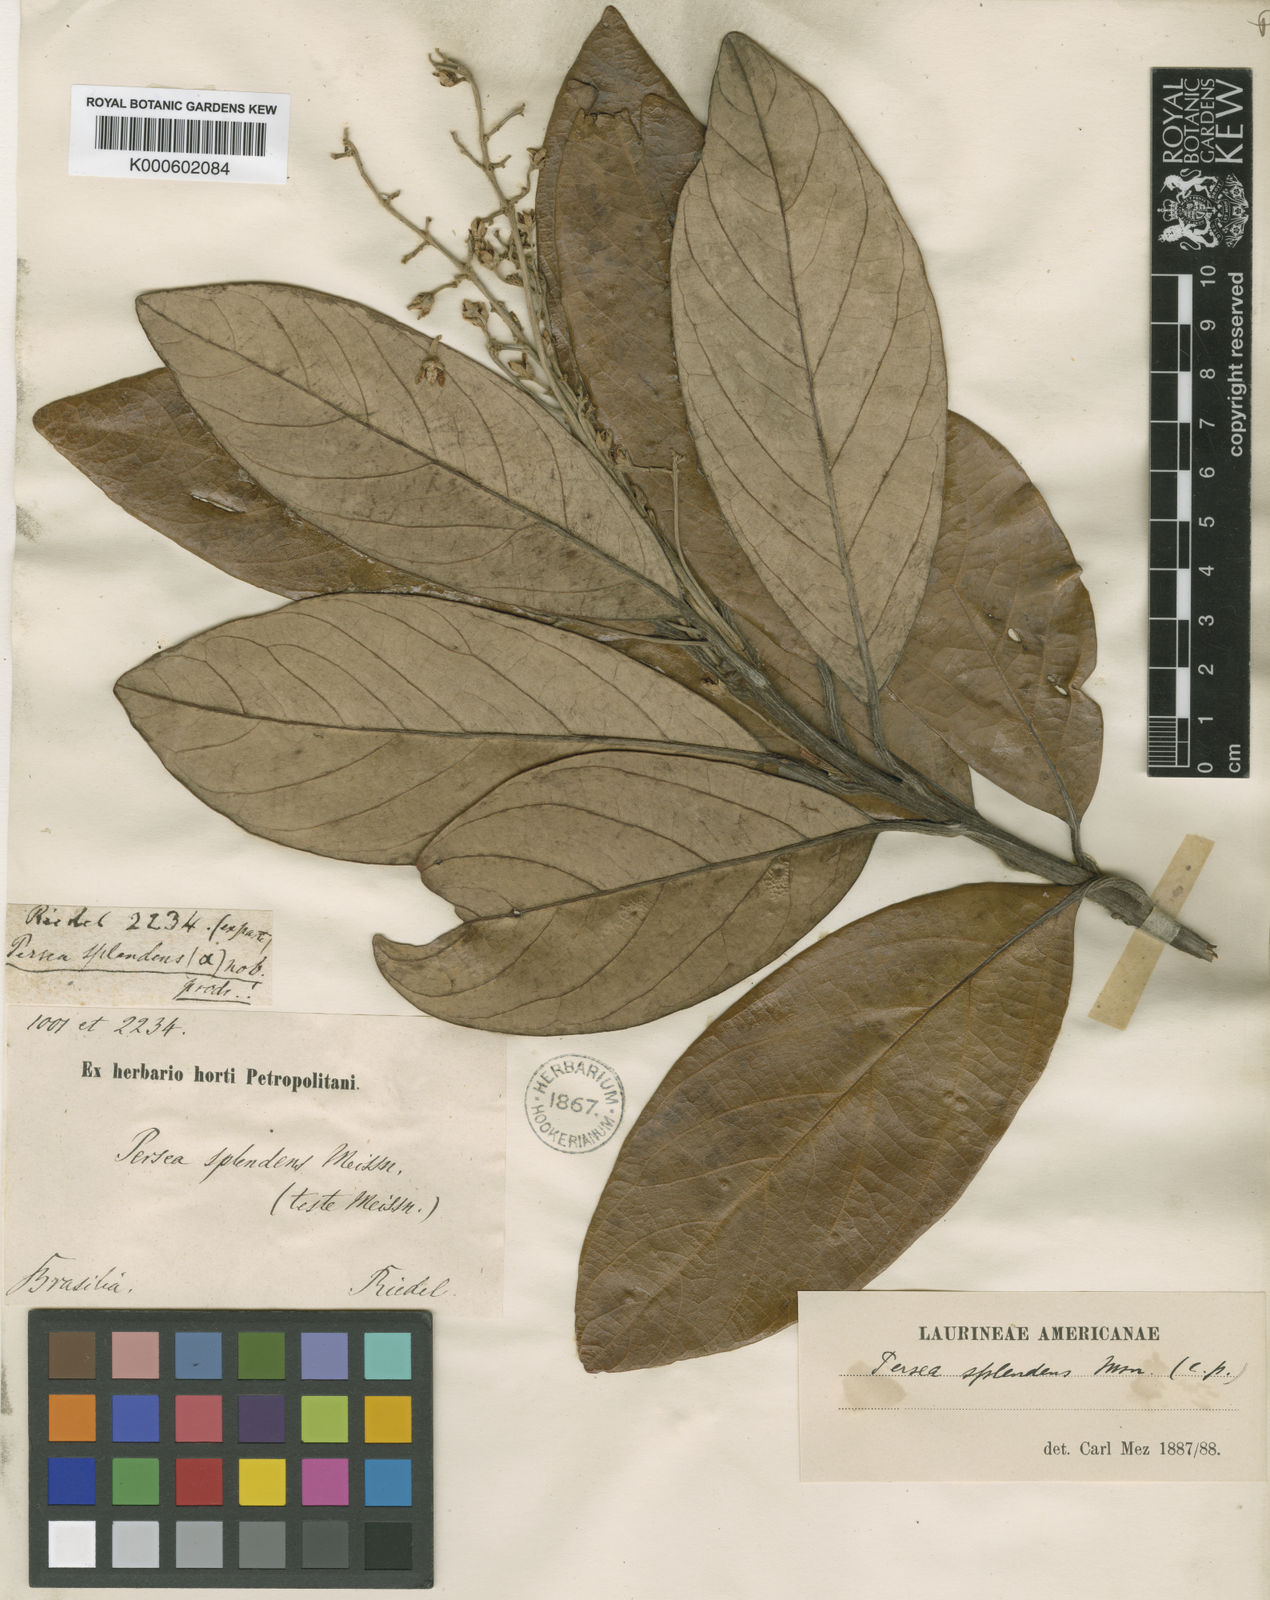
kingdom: Plantae
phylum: Tracheophyta
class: Magnoliopsida
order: Laurales
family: Lauraceae
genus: Persea
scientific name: Persea splendens
